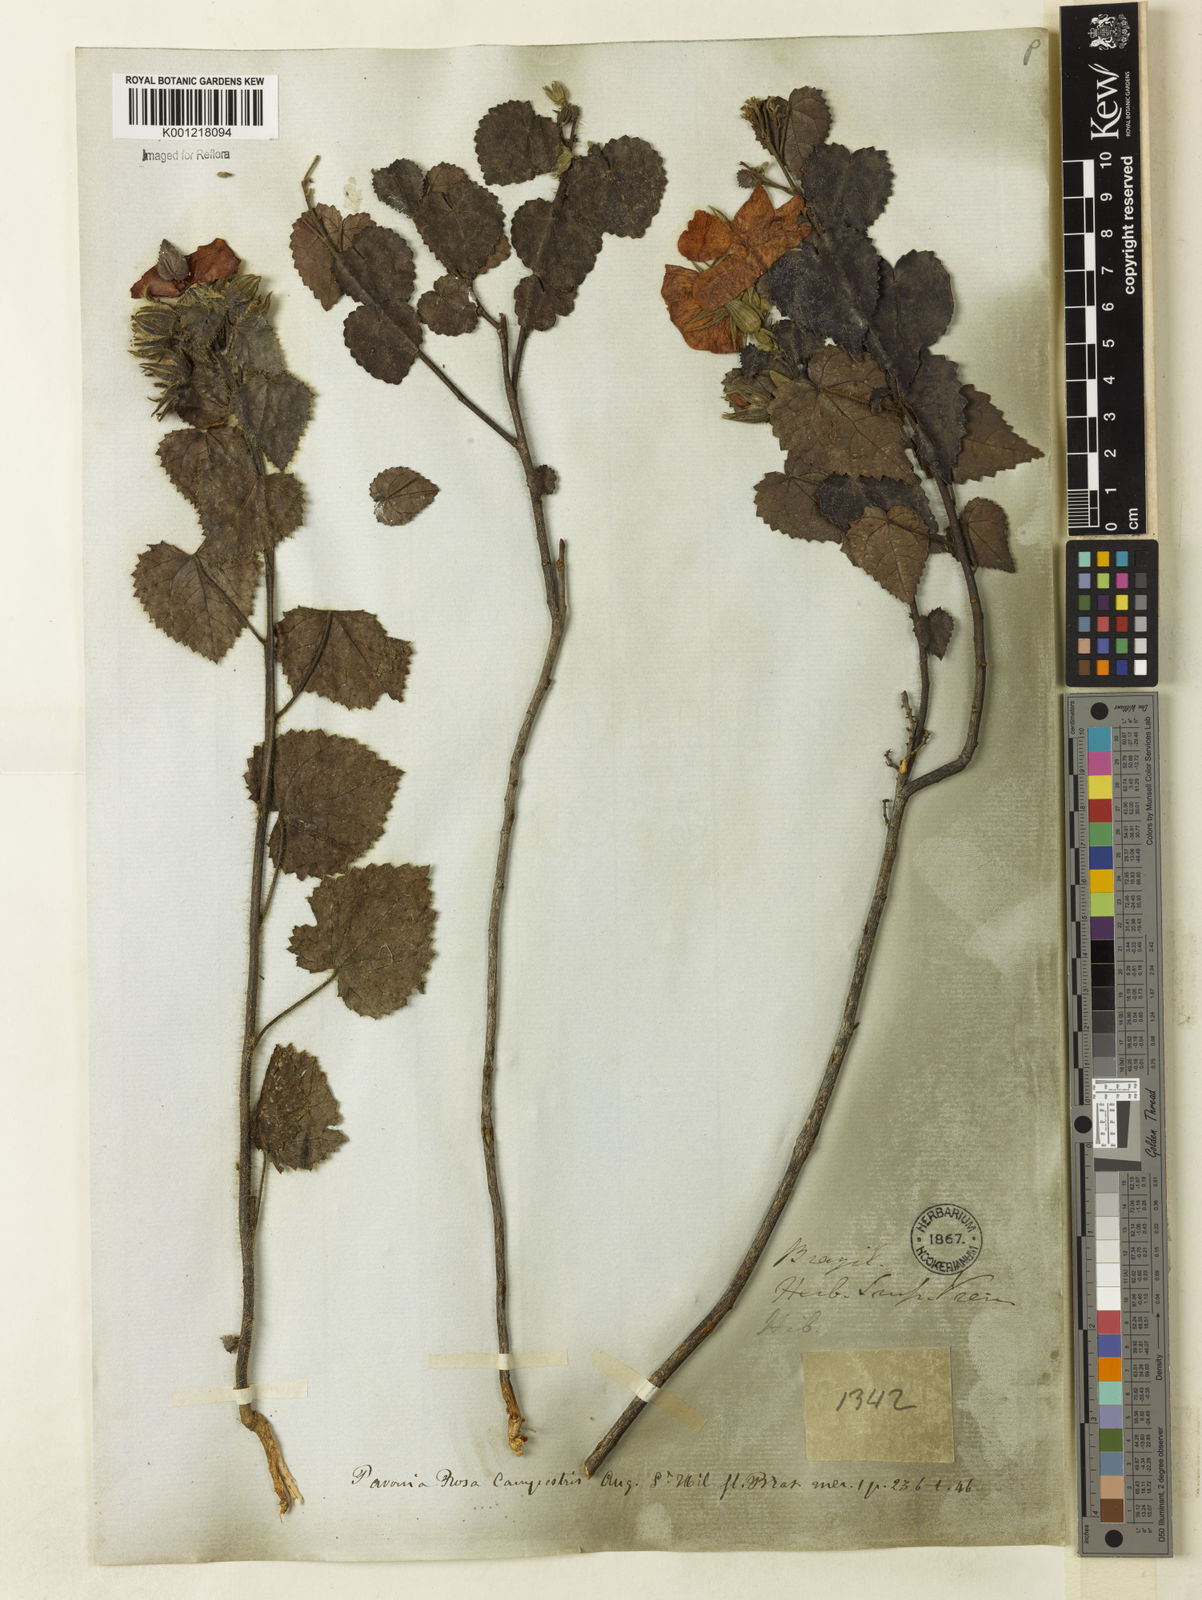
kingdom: Plantae
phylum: Tracheophyta
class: Magnoliopsida
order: Malvales
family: Malvaceae
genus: Pavonia
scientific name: Pavonia rosa-campestris
